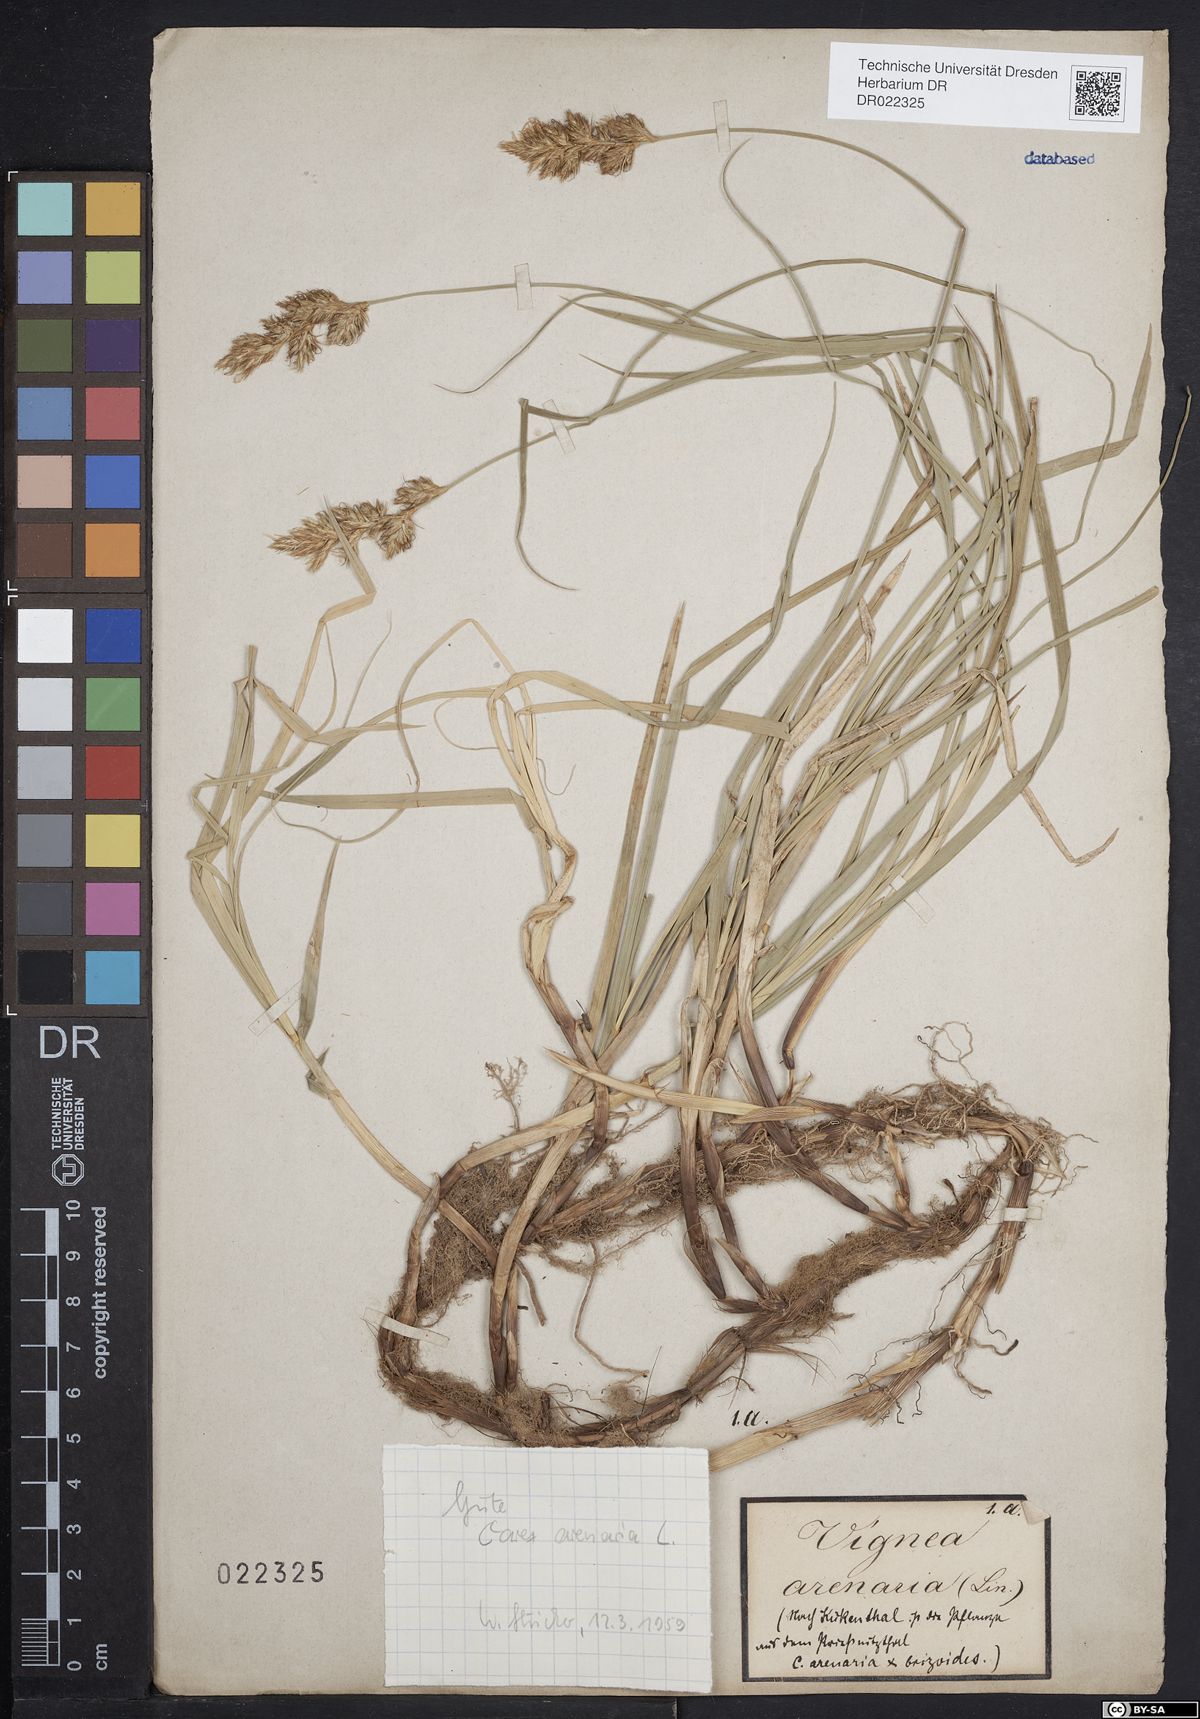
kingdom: Plantae
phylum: Tracheophyta
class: Liliopsida
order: Poales
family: Cyperaceae
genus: Carex
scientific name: Carex arenaria
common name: Sand sedge
